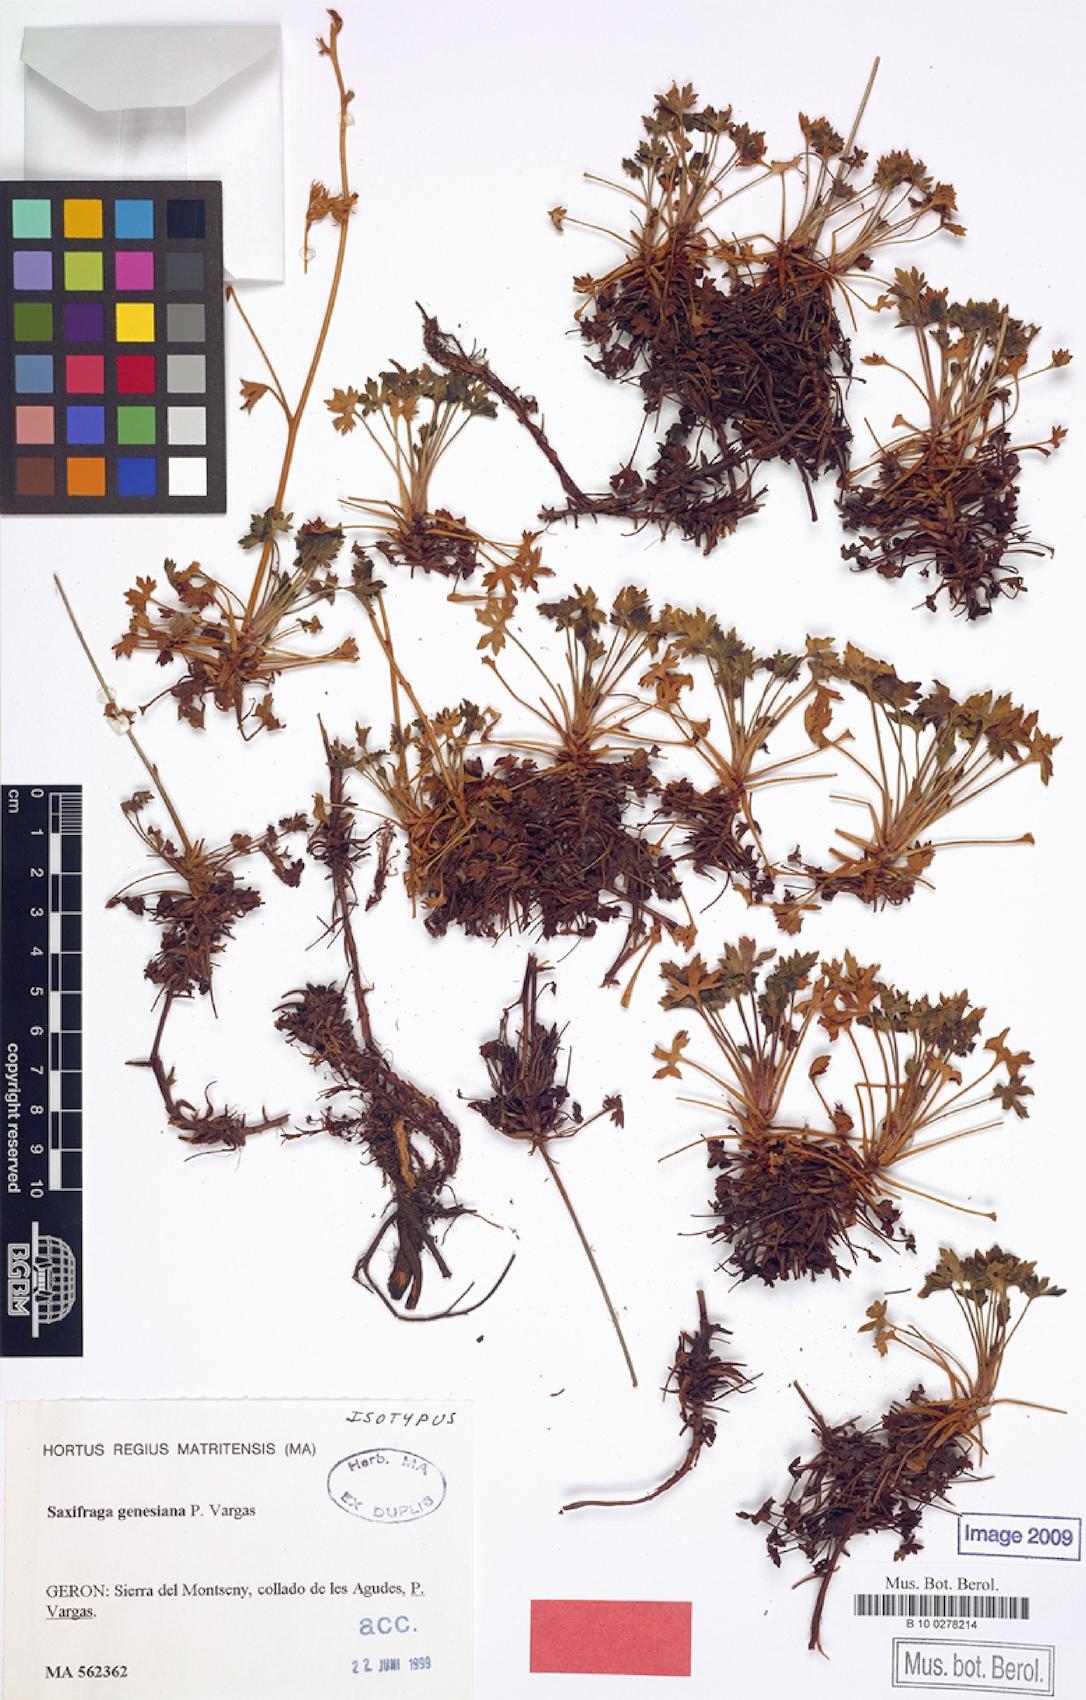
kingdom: Plantae
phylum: Tracheophyta
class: Magnoliopsida
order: Saxifragales
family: Saxifragaceae
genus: Saxifraga
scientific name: Saxifraga genesiana
